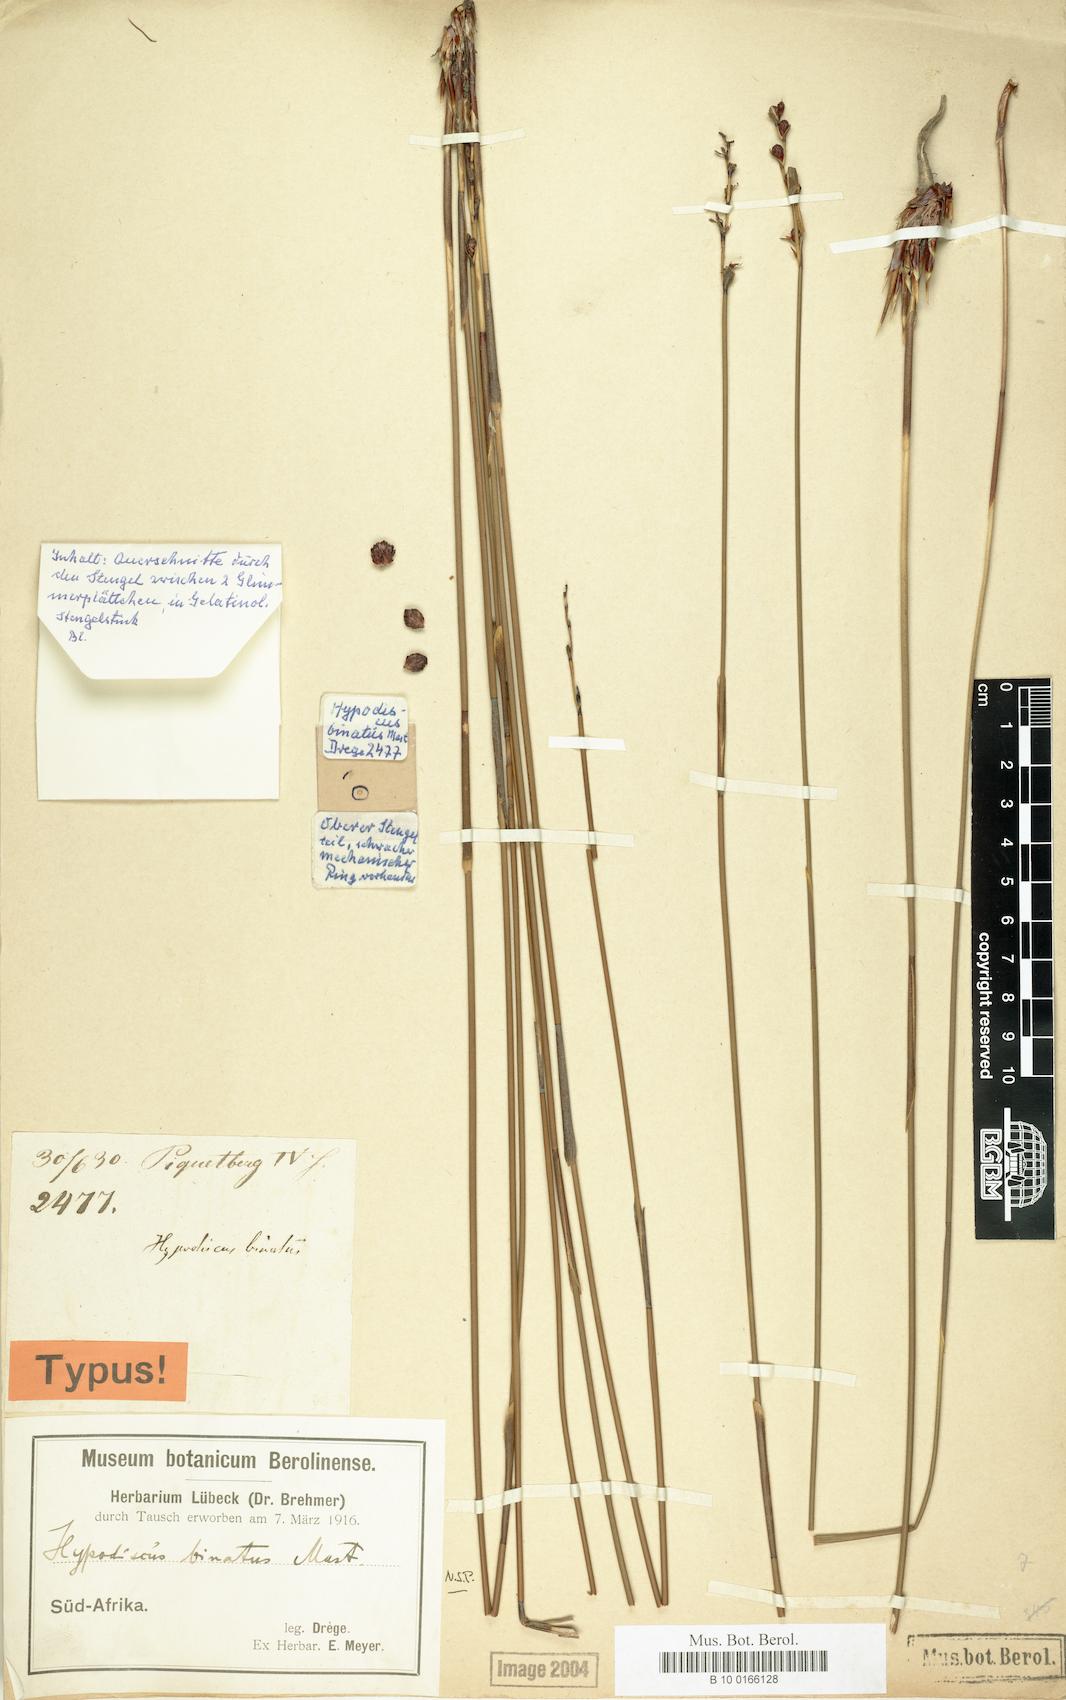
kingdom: Plantae
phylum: Tracheophyta
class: Liliopsida
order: Poales
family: Restionaceae
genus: Hypodiscus
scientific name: Hypodiscus laevigatus
